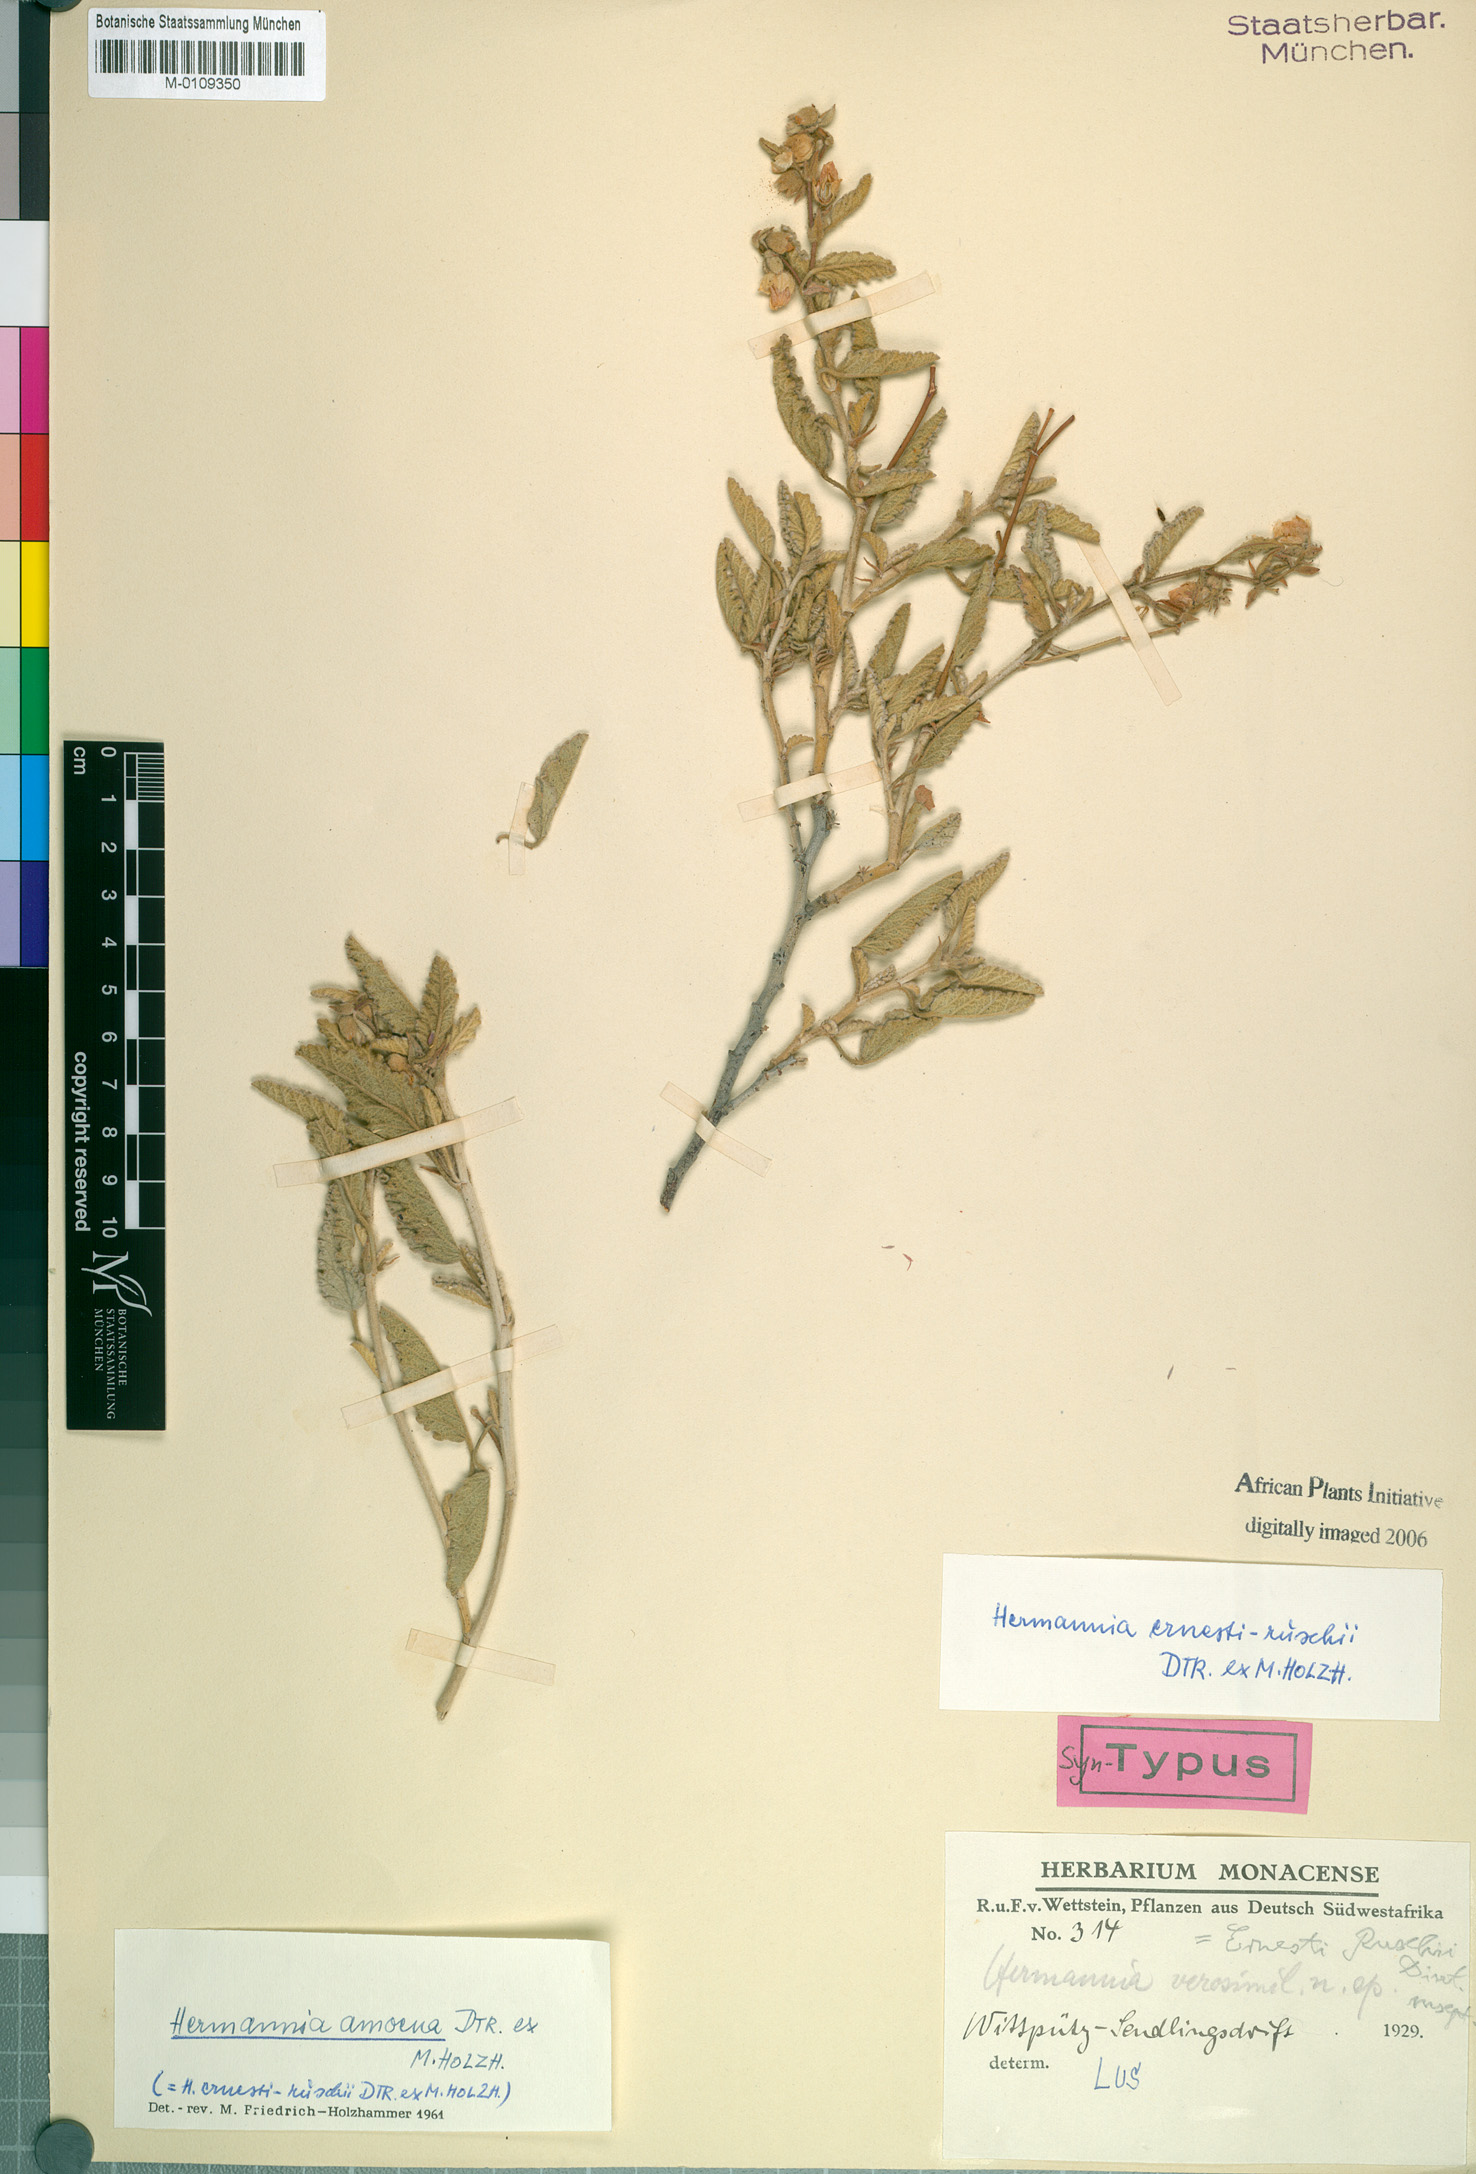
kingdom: Plantae
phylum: Tracheophyta
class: Magnoliopsida
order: Malvales
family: Malvaceae
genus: Triumfetta
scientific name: Triumfetta pentandra
